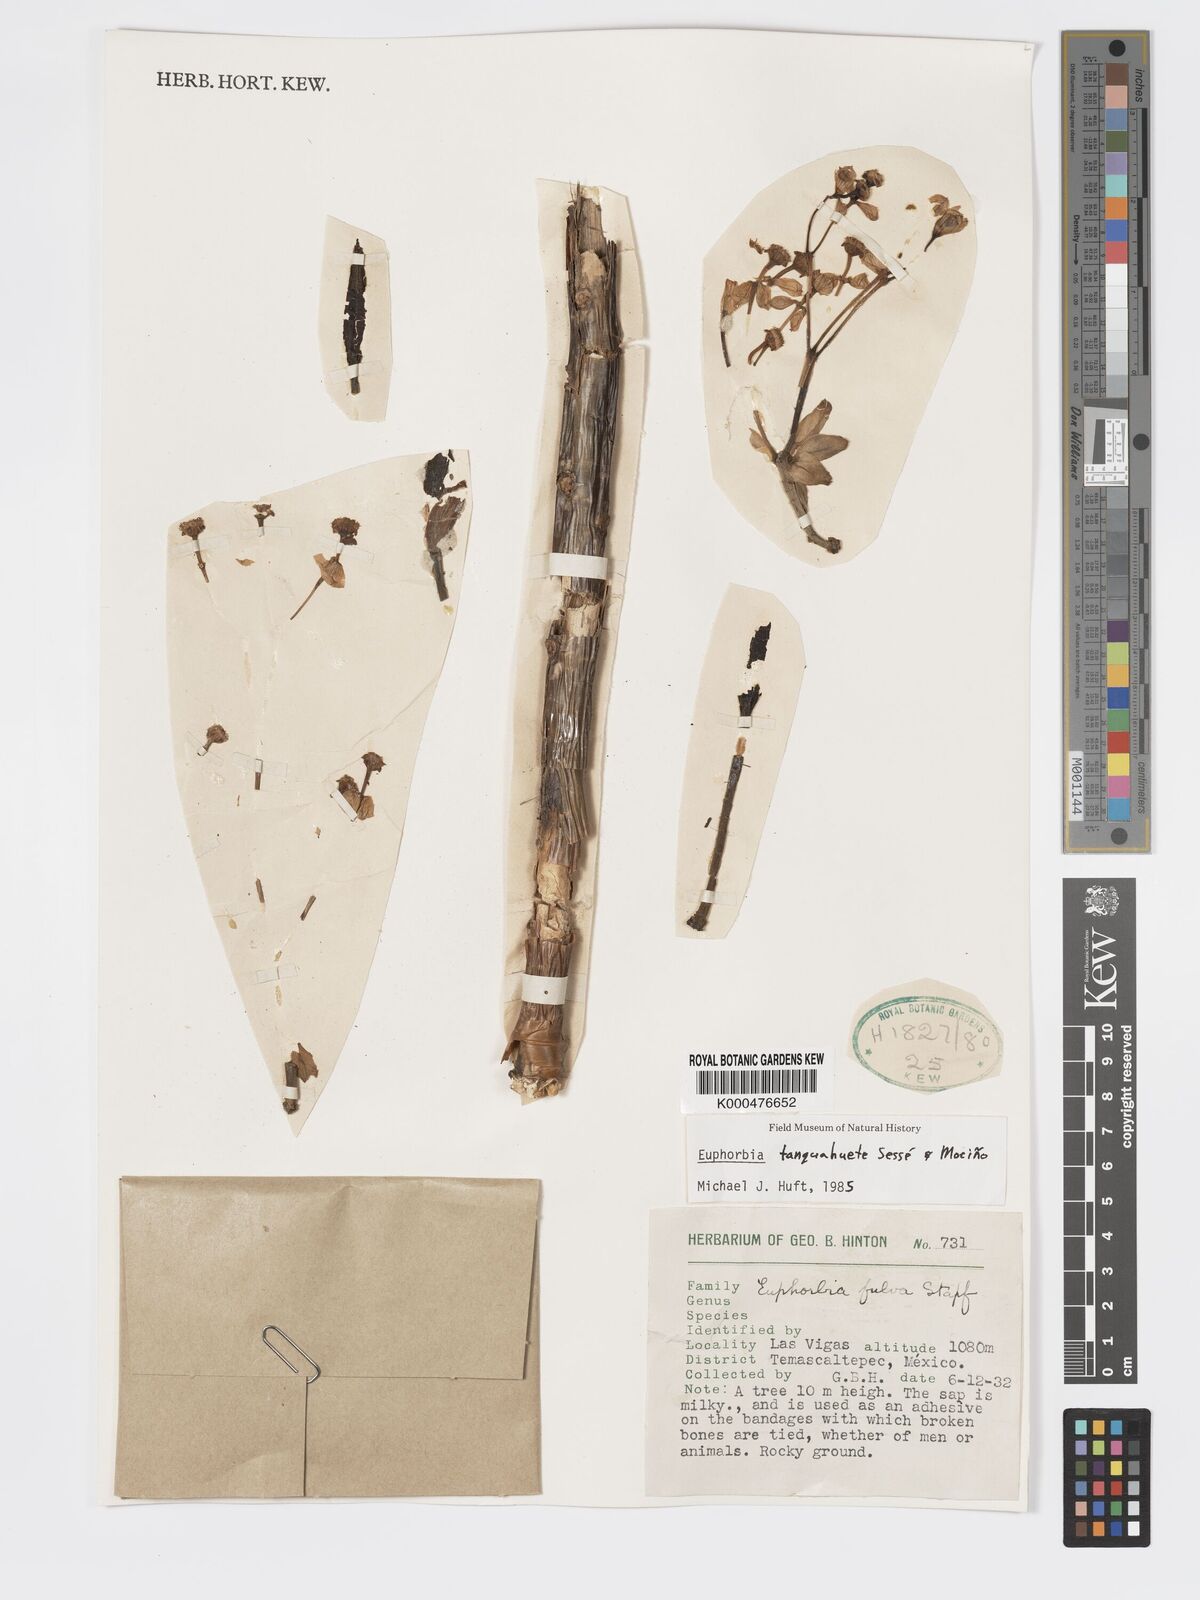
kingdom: Plantae
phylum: Tracheophyta
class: Magnoliopsida
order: Malpighiales
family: Euphorbiaceae
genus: Euphorbia
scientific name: Euphorbia
